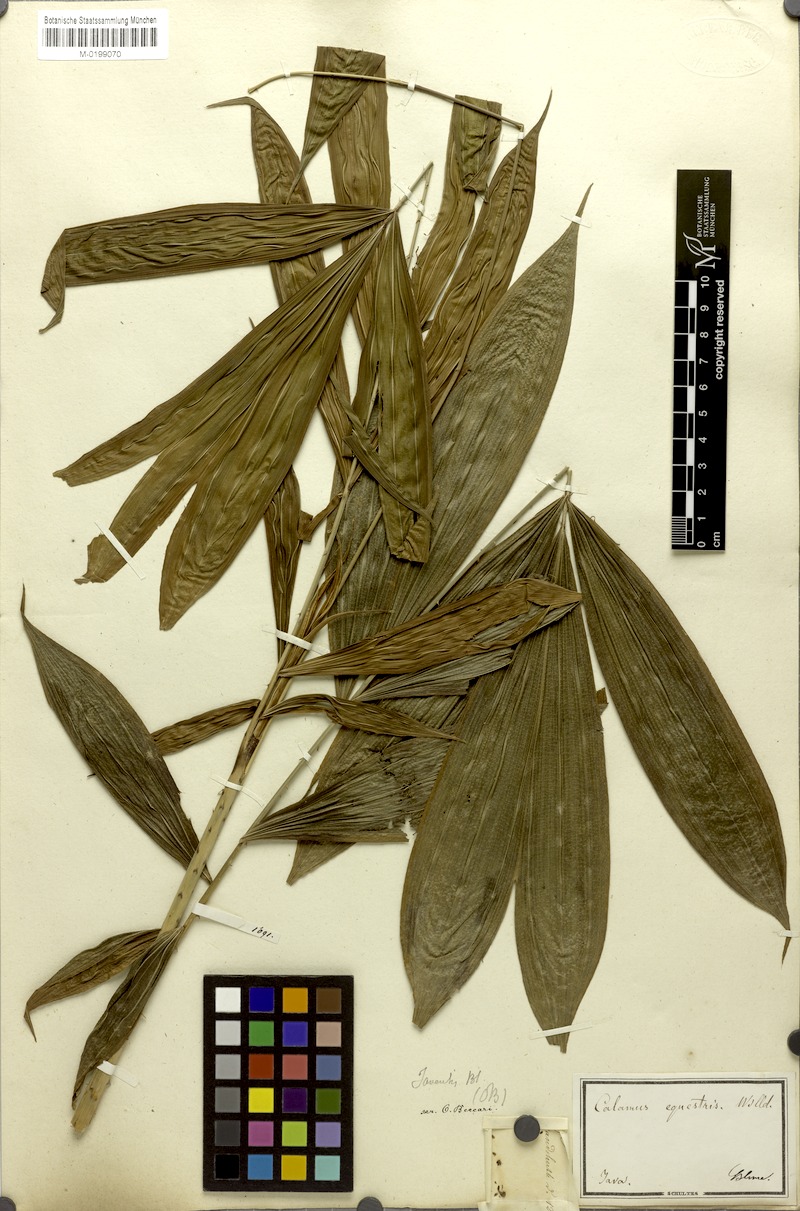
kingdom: Plantae
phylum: Tracheophyta
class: Liliopsida
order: Arecales
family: Arecaceae
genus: Calamus
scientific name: Calamus equestris
